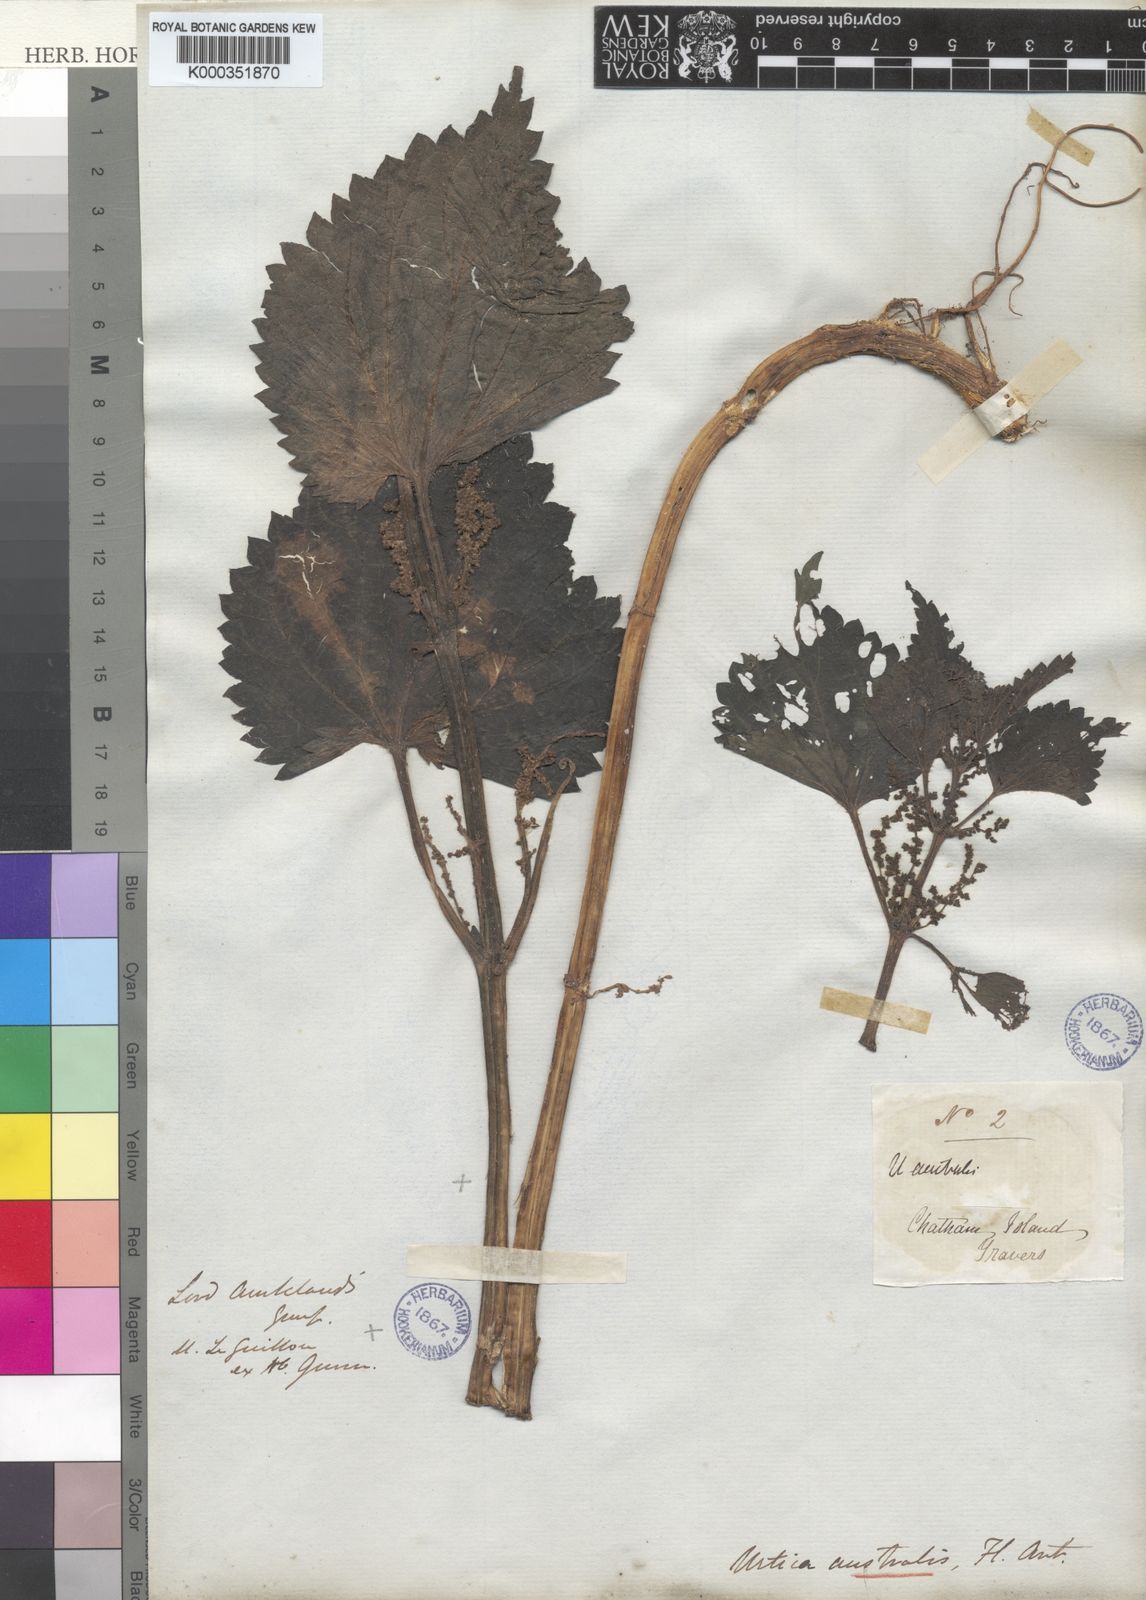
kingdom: Plantae
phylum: Tracheophyta
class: Magnoliopsida
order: Rosales
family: Urticaceae
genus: Urtica
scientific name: Urtica australis
